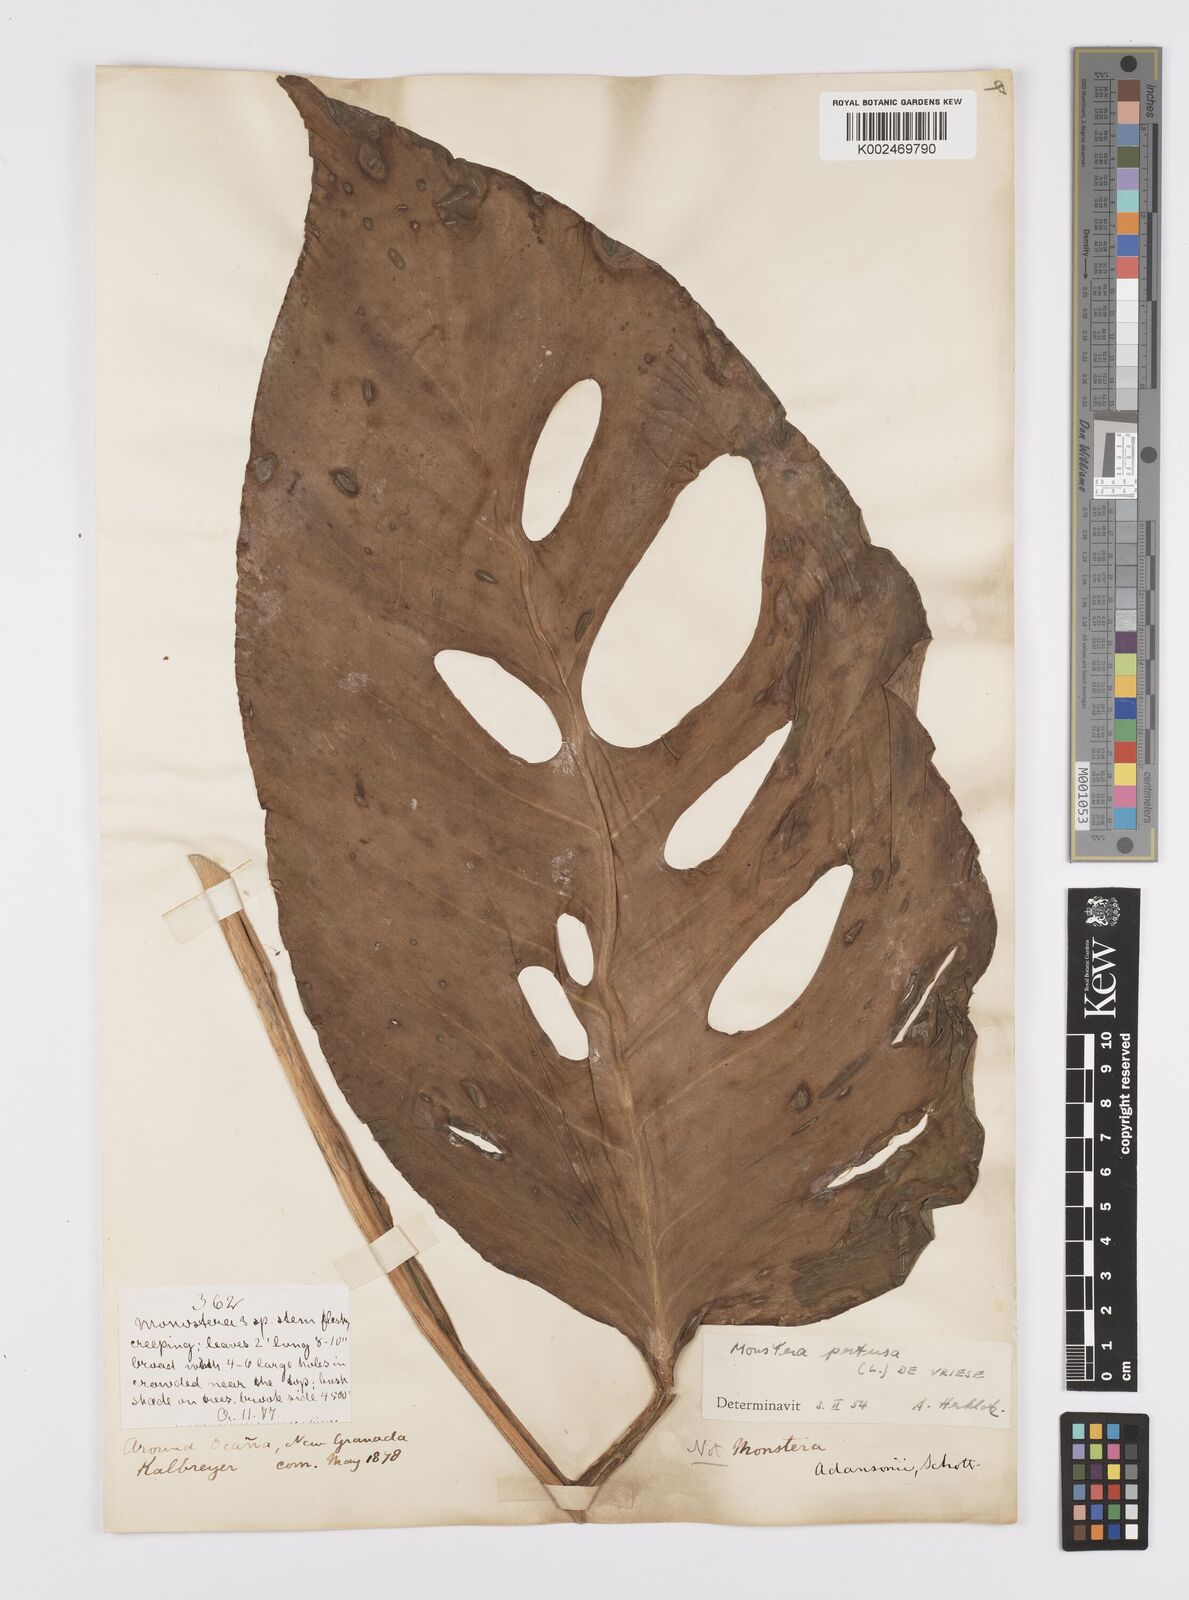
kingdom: Plantae
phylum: Tracheophyta
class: Liliopsida
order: Alismatales
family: Araceae
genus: Monstera
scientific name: Monstera adansonii
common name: Tarovine
